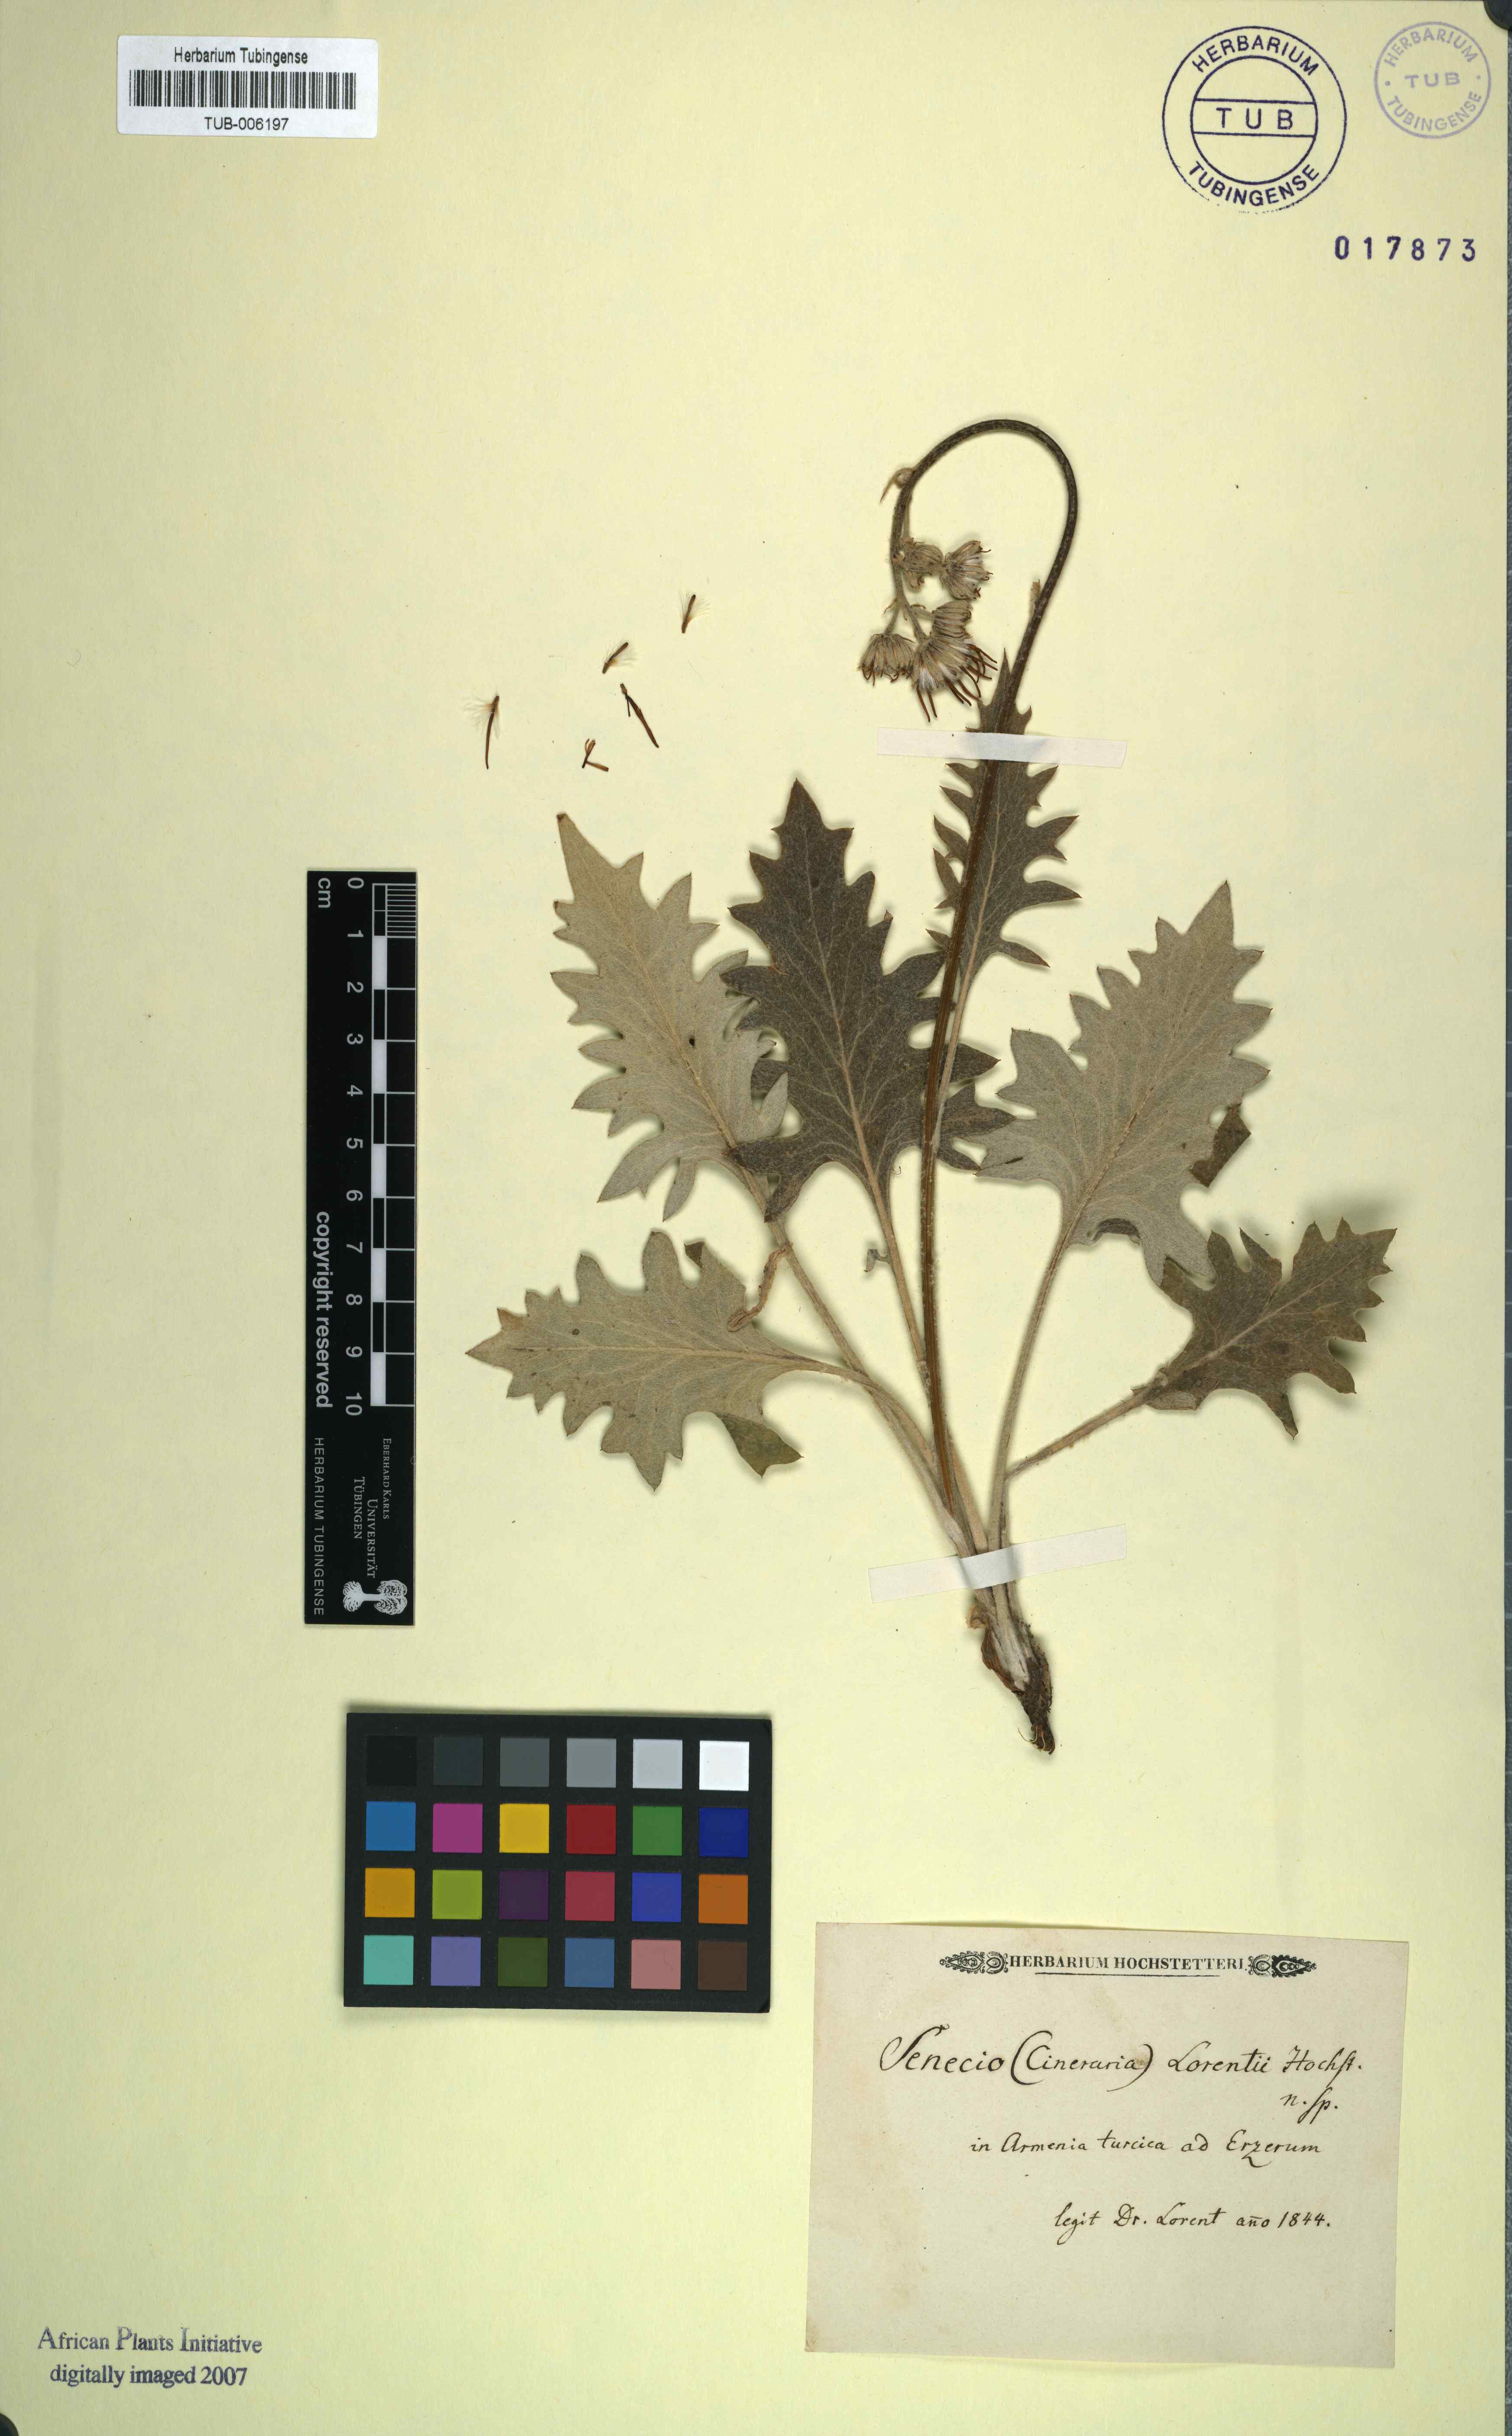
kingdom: Plantae
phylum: Tracheophyta
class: Magnoliopsida
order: Asterales
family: Asteraceae
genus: Turanecio
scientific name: Turanecio lorentii
